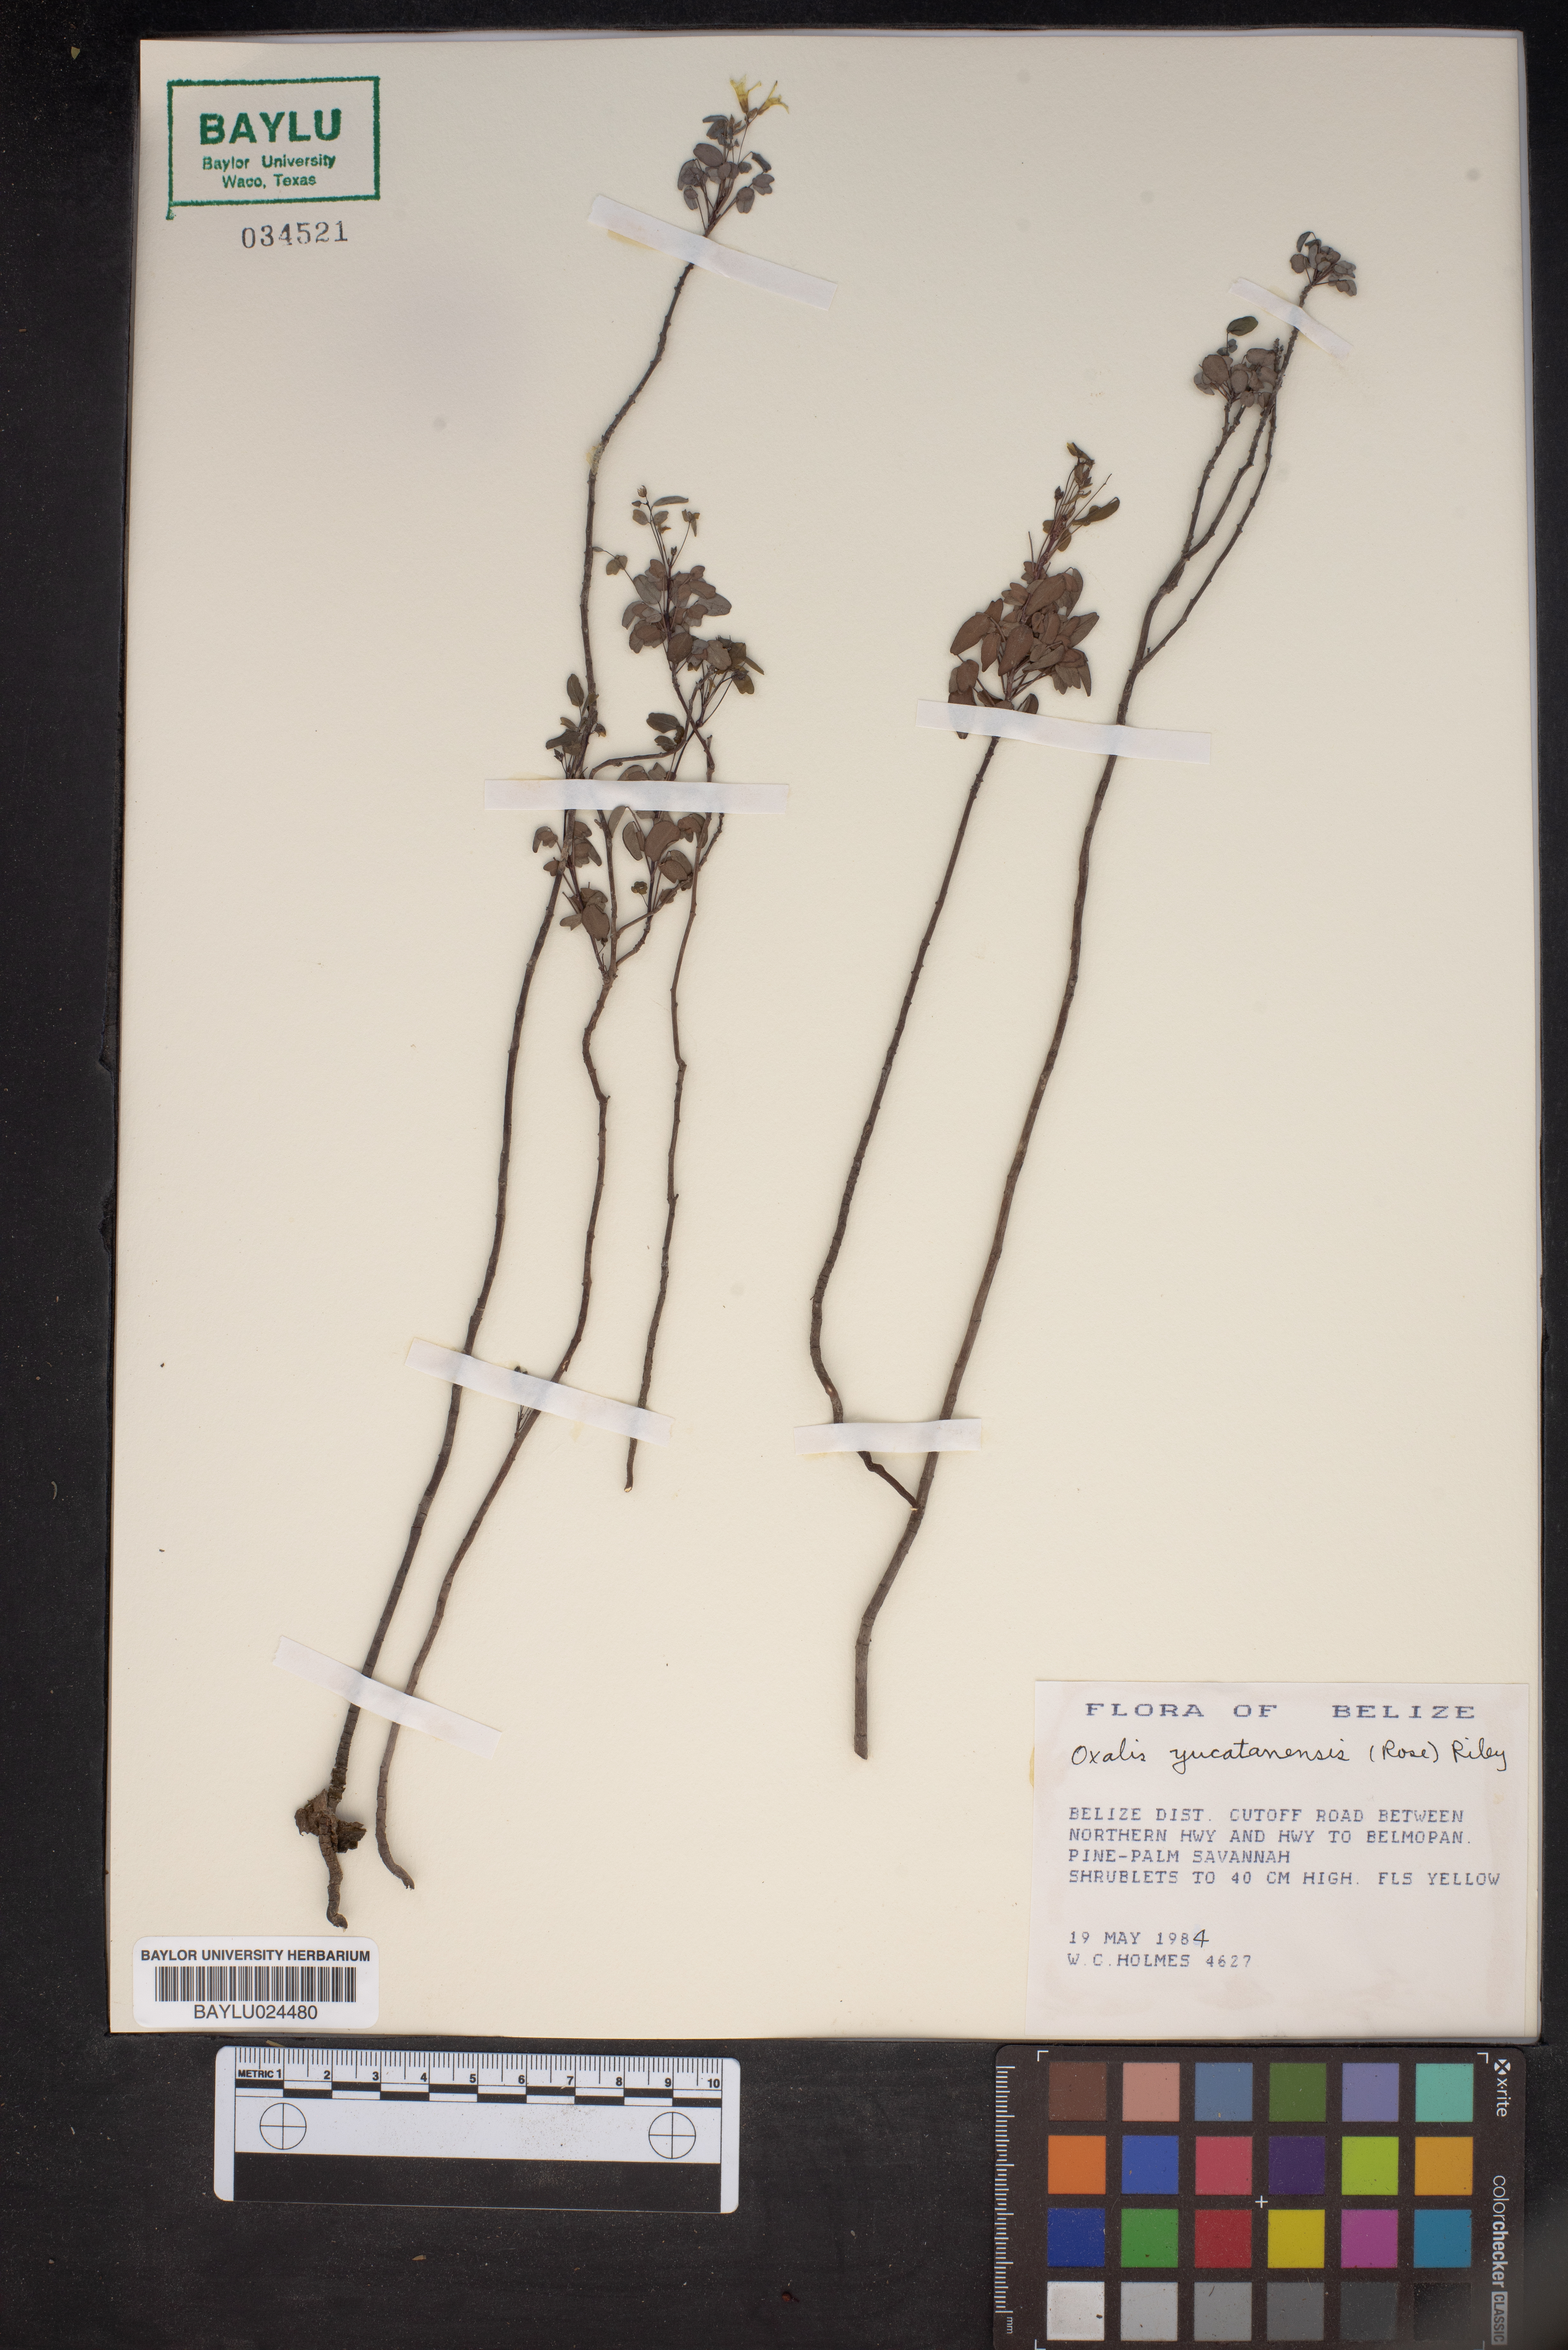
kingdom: Plantae
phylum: Tracheophyta
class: Magnoliopsida
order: Oxalidales
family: Oxalidaceae
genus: Oxalis
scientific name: Oxalis frutescens
